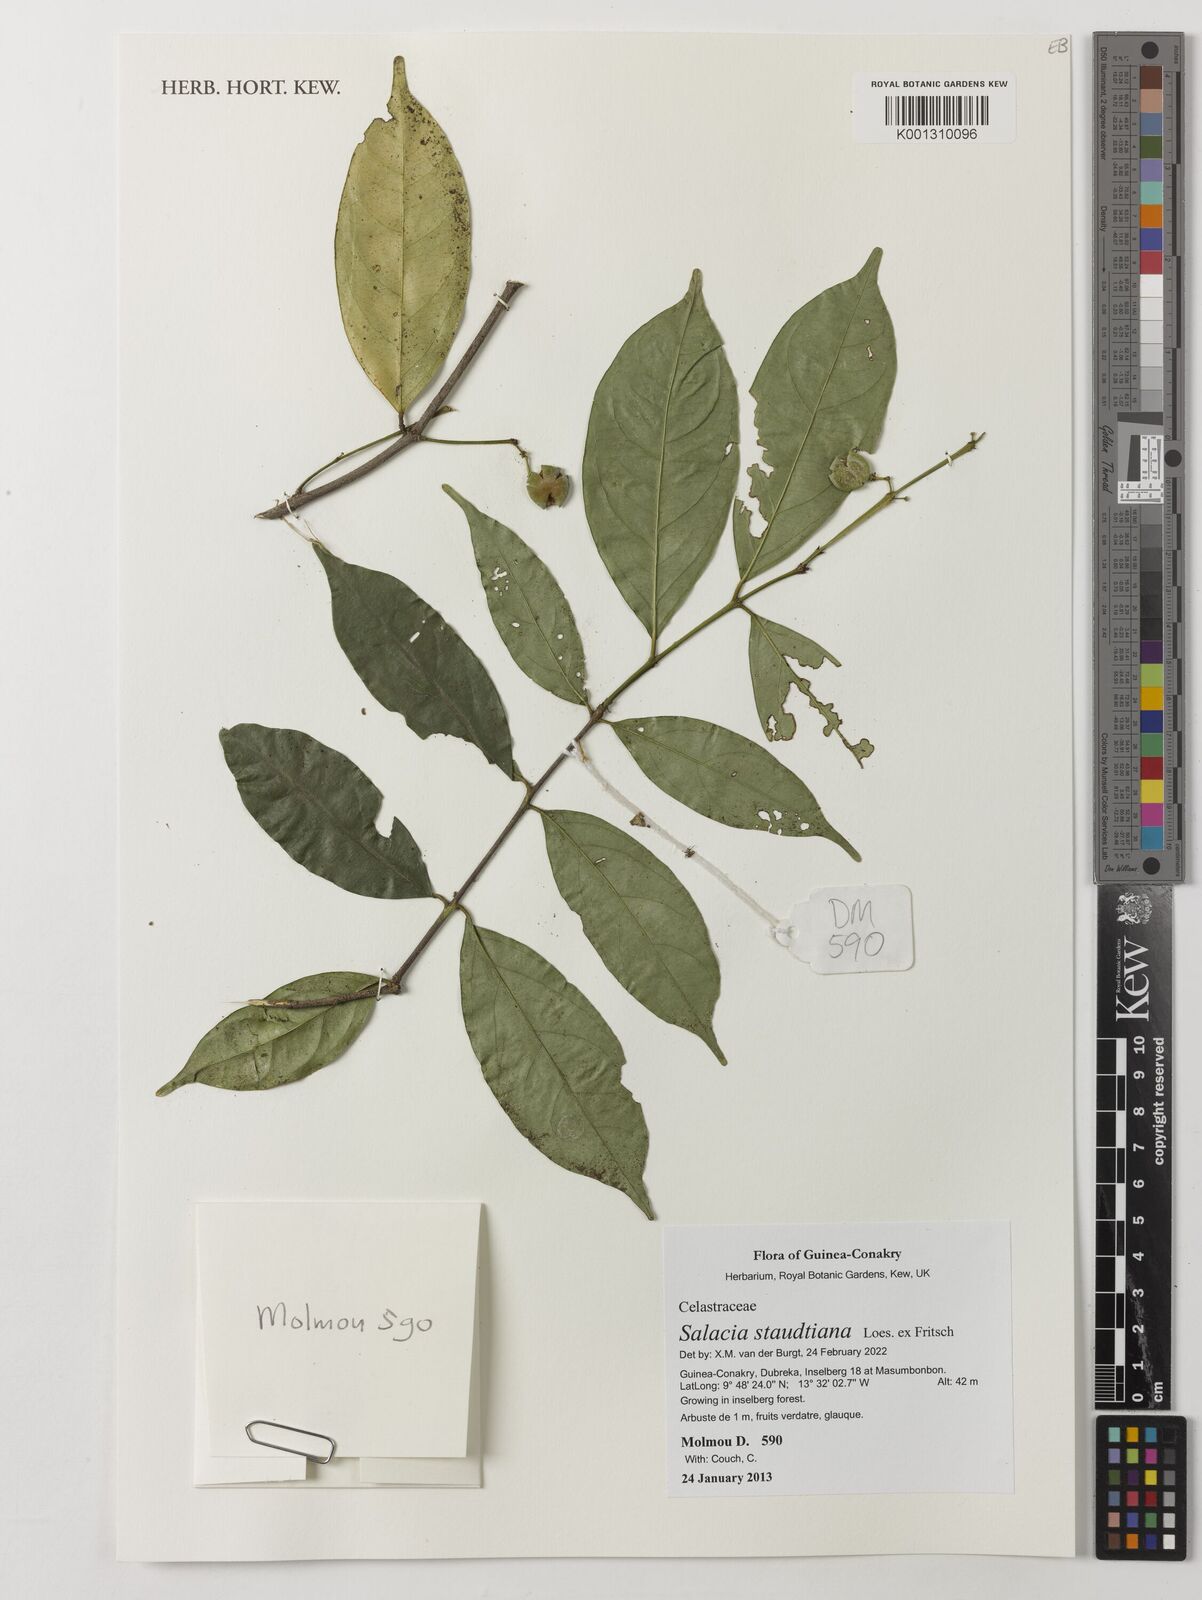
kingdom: Plantae
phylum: Tracheophyta
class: Magnoliopsida
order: Celastrales
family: Celastraceae
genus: Salacia
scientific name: Salacia staudtiana
